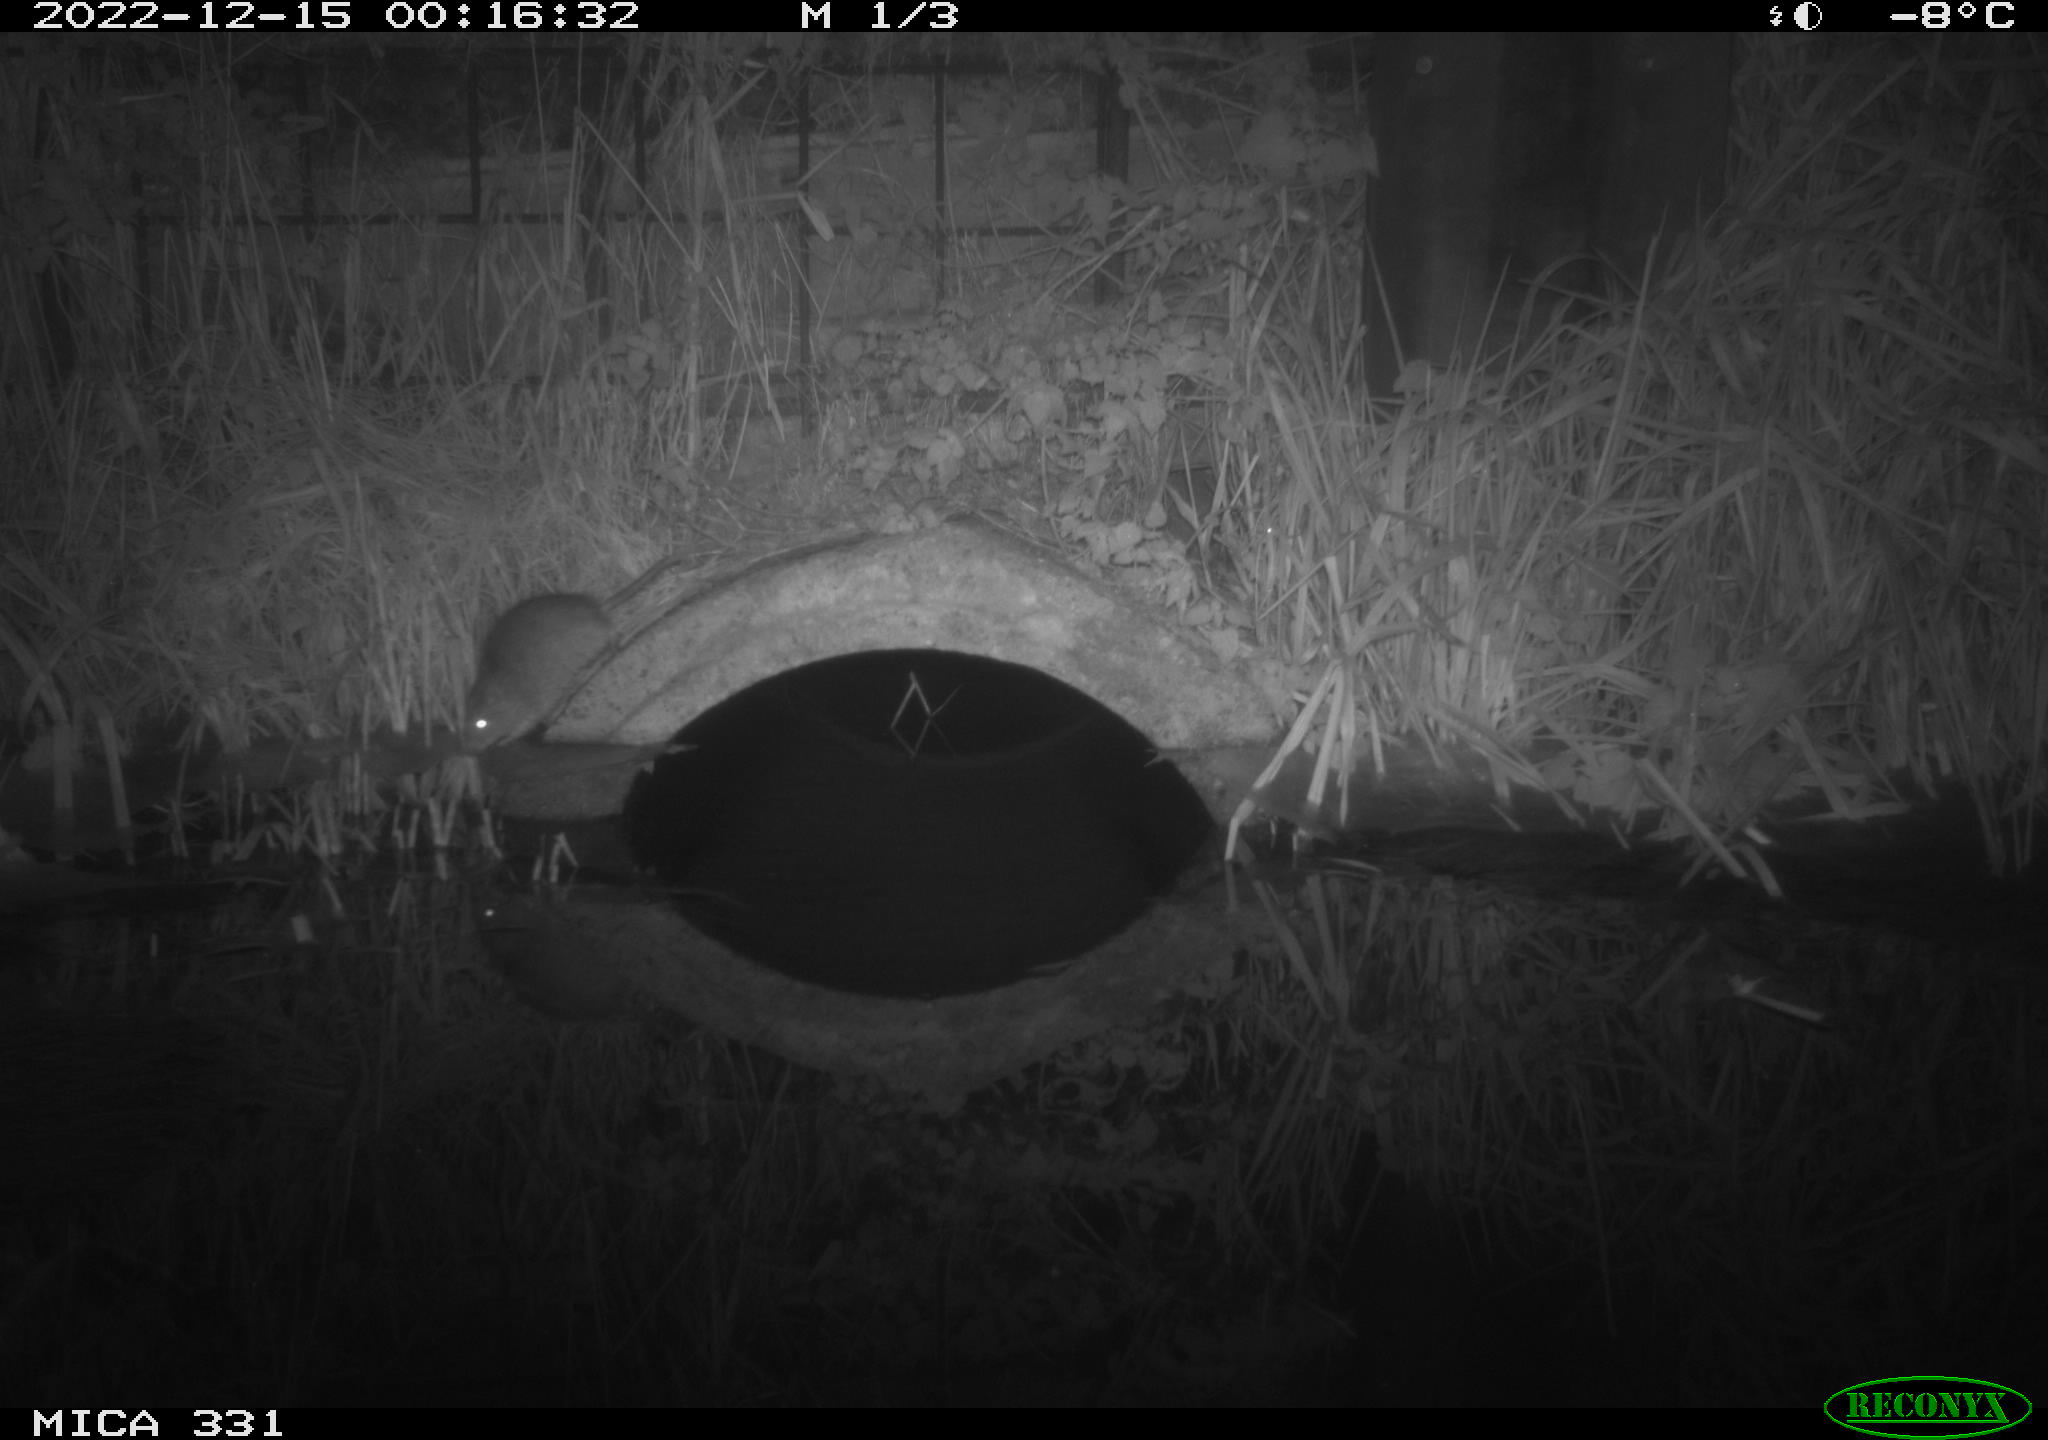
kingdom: Animalia
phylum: Chordata
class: Mammalia
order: Rodentia
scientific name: Rodentia
